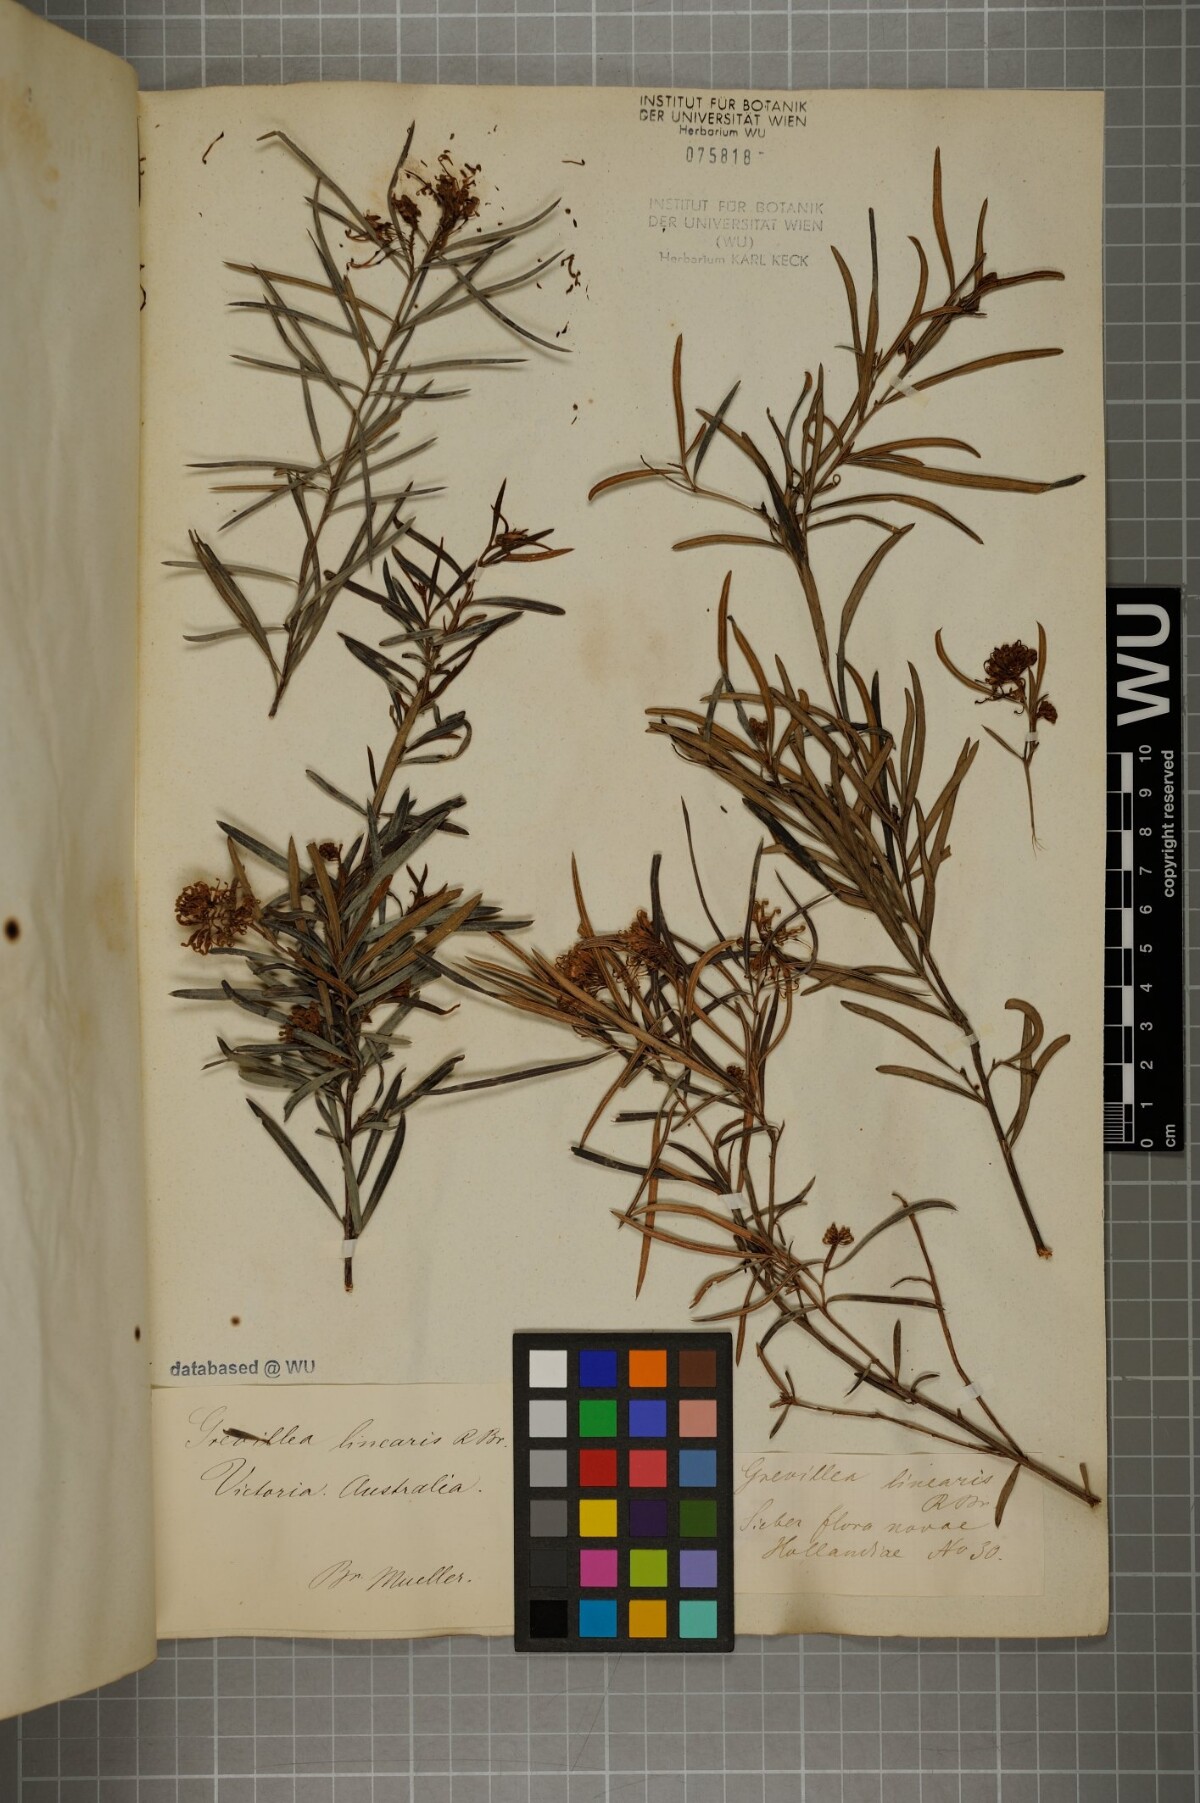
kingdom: Plantae
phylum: Tracheophyta
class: Magnoliopsida
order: Proteales
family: Proteaceae
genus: Grevillea
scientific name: Grevillea linearifolia
